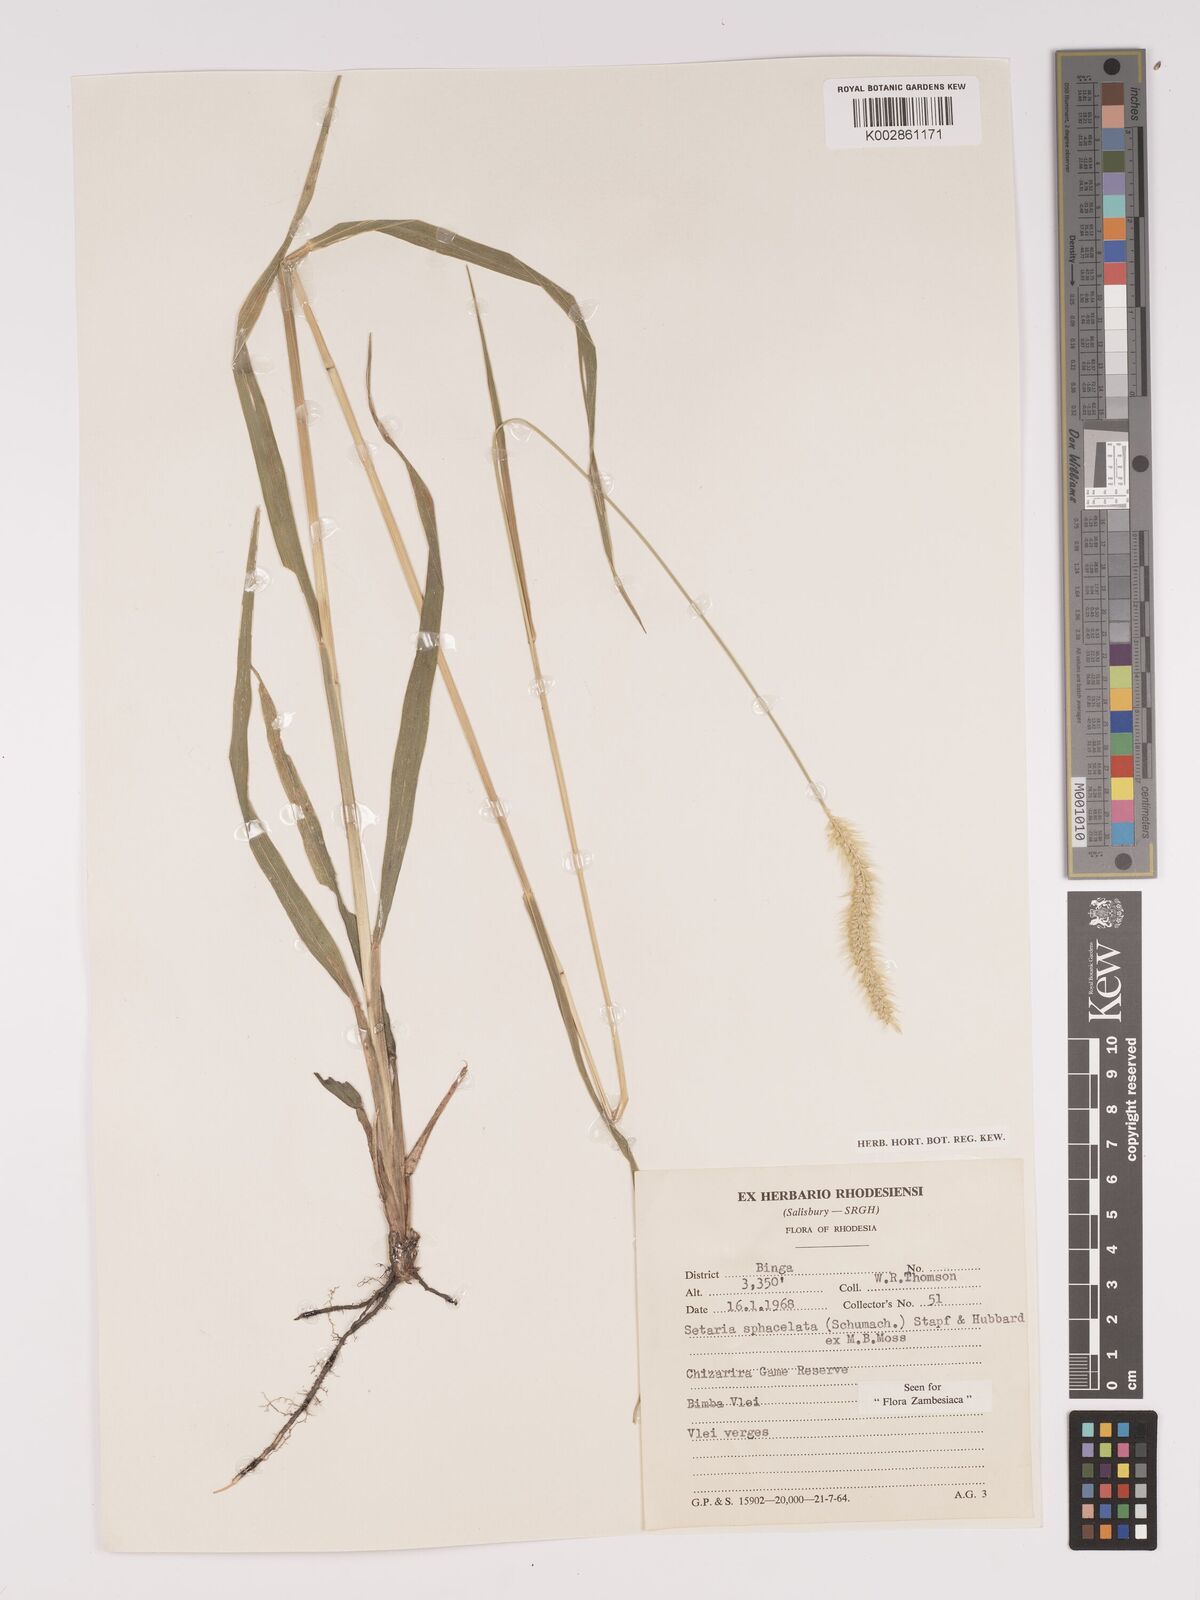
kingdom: Plantae
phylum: Tracheophyta
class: Liliopsida
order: Poales
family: Poaceae
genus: Setaria
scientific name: Setaria sphacelata
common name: African bristlegrass
